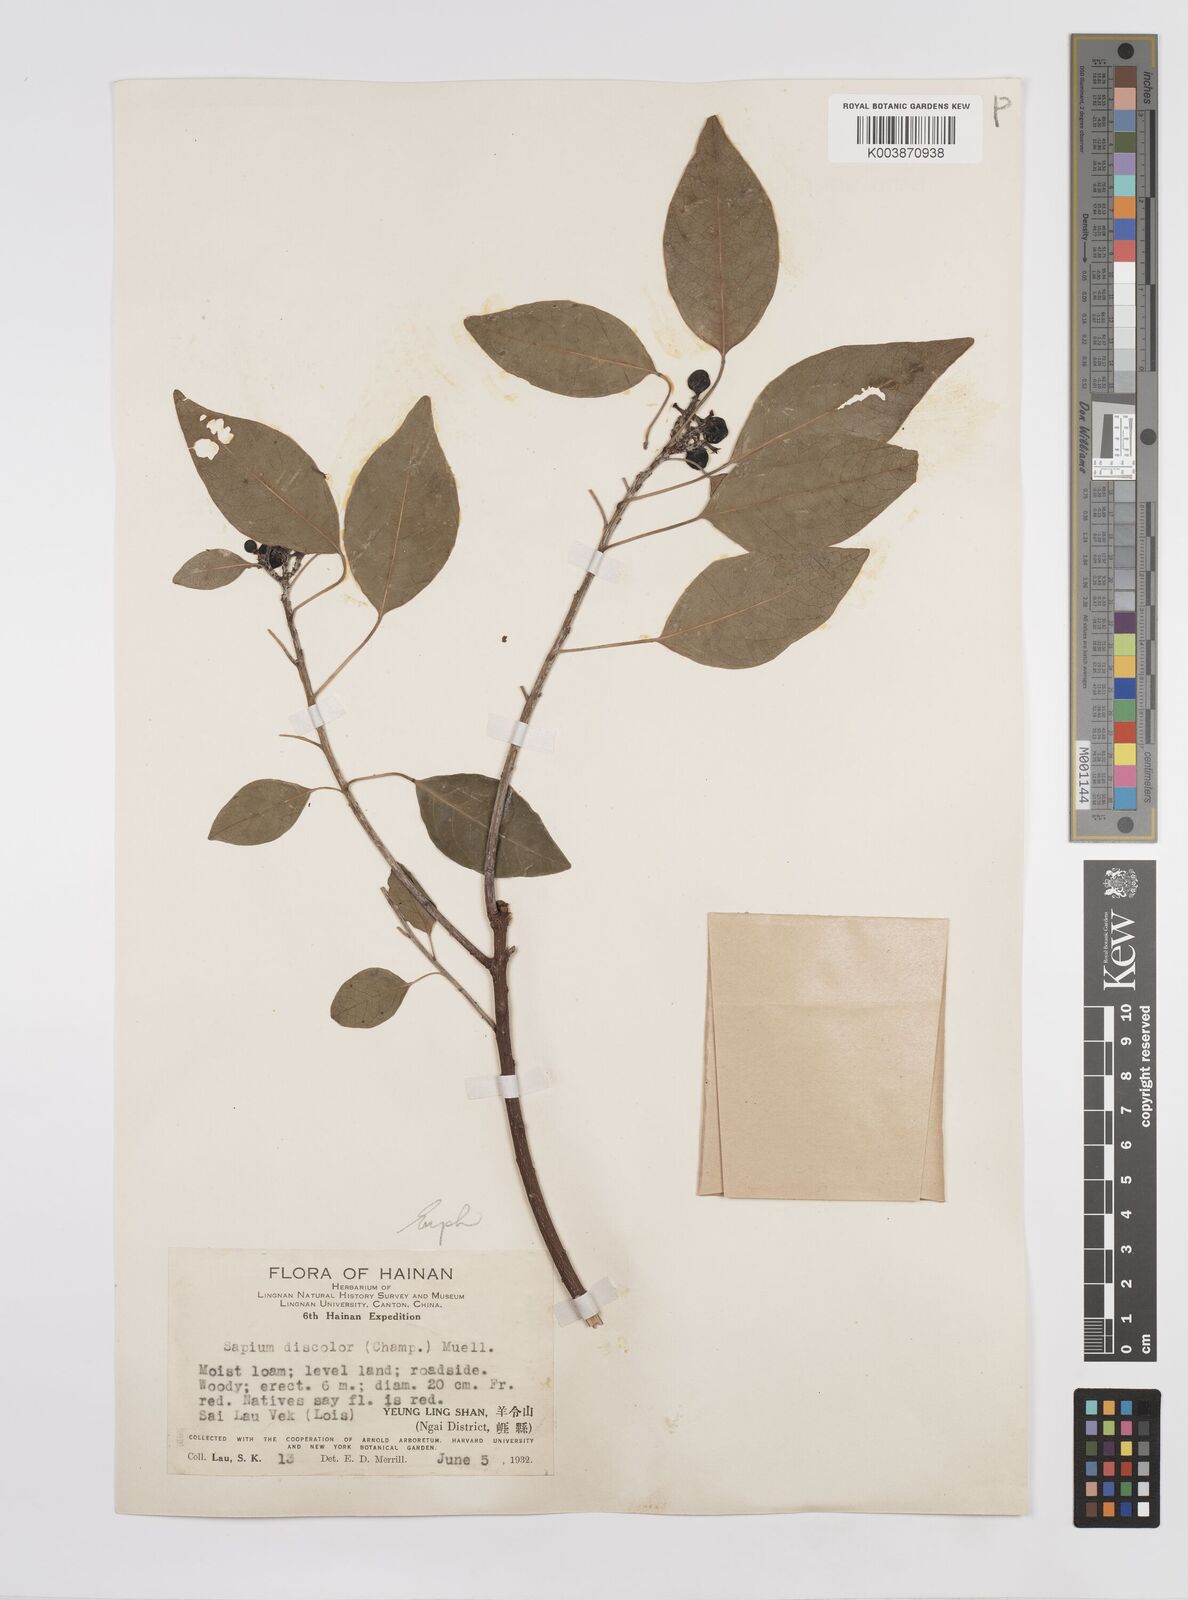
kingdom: Plantae
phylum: Tracheophyta
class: Magnoliopsida
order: Malpighiales
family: Euphorbiaceae
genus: Triadica
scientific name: Triadica cochinchinensis
